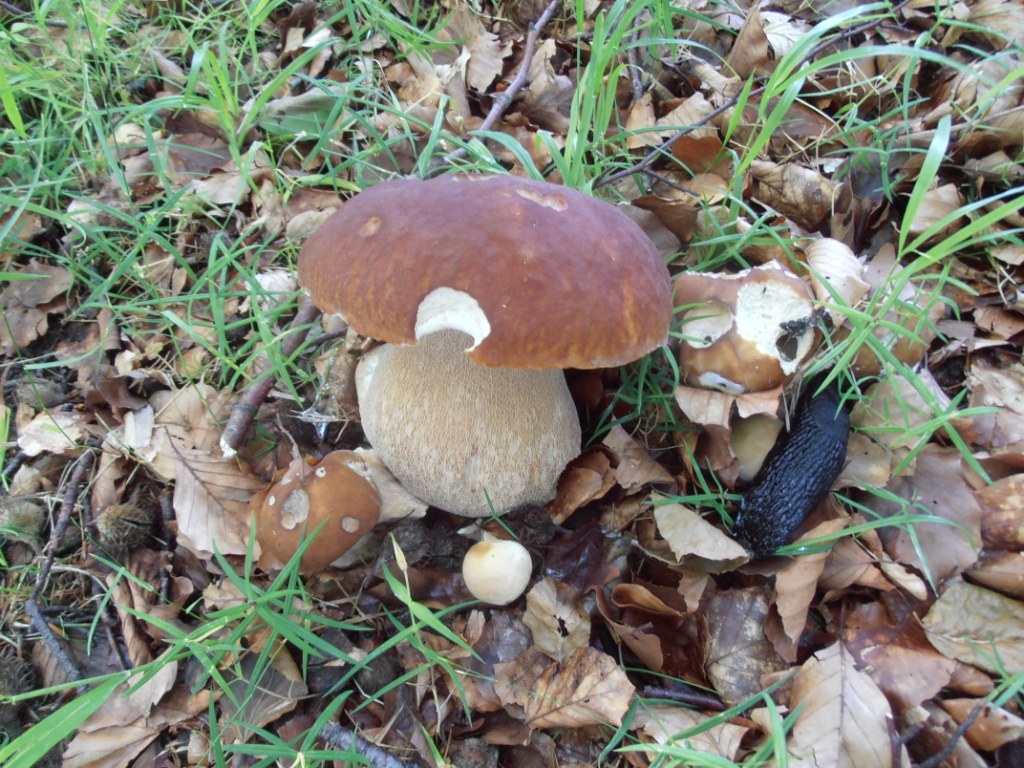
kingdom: Fungi
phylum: Basidiomycota
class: Agaricomycetes
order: Boletales
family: Boletaceae
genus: Boletus
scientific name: Boletus edulis
